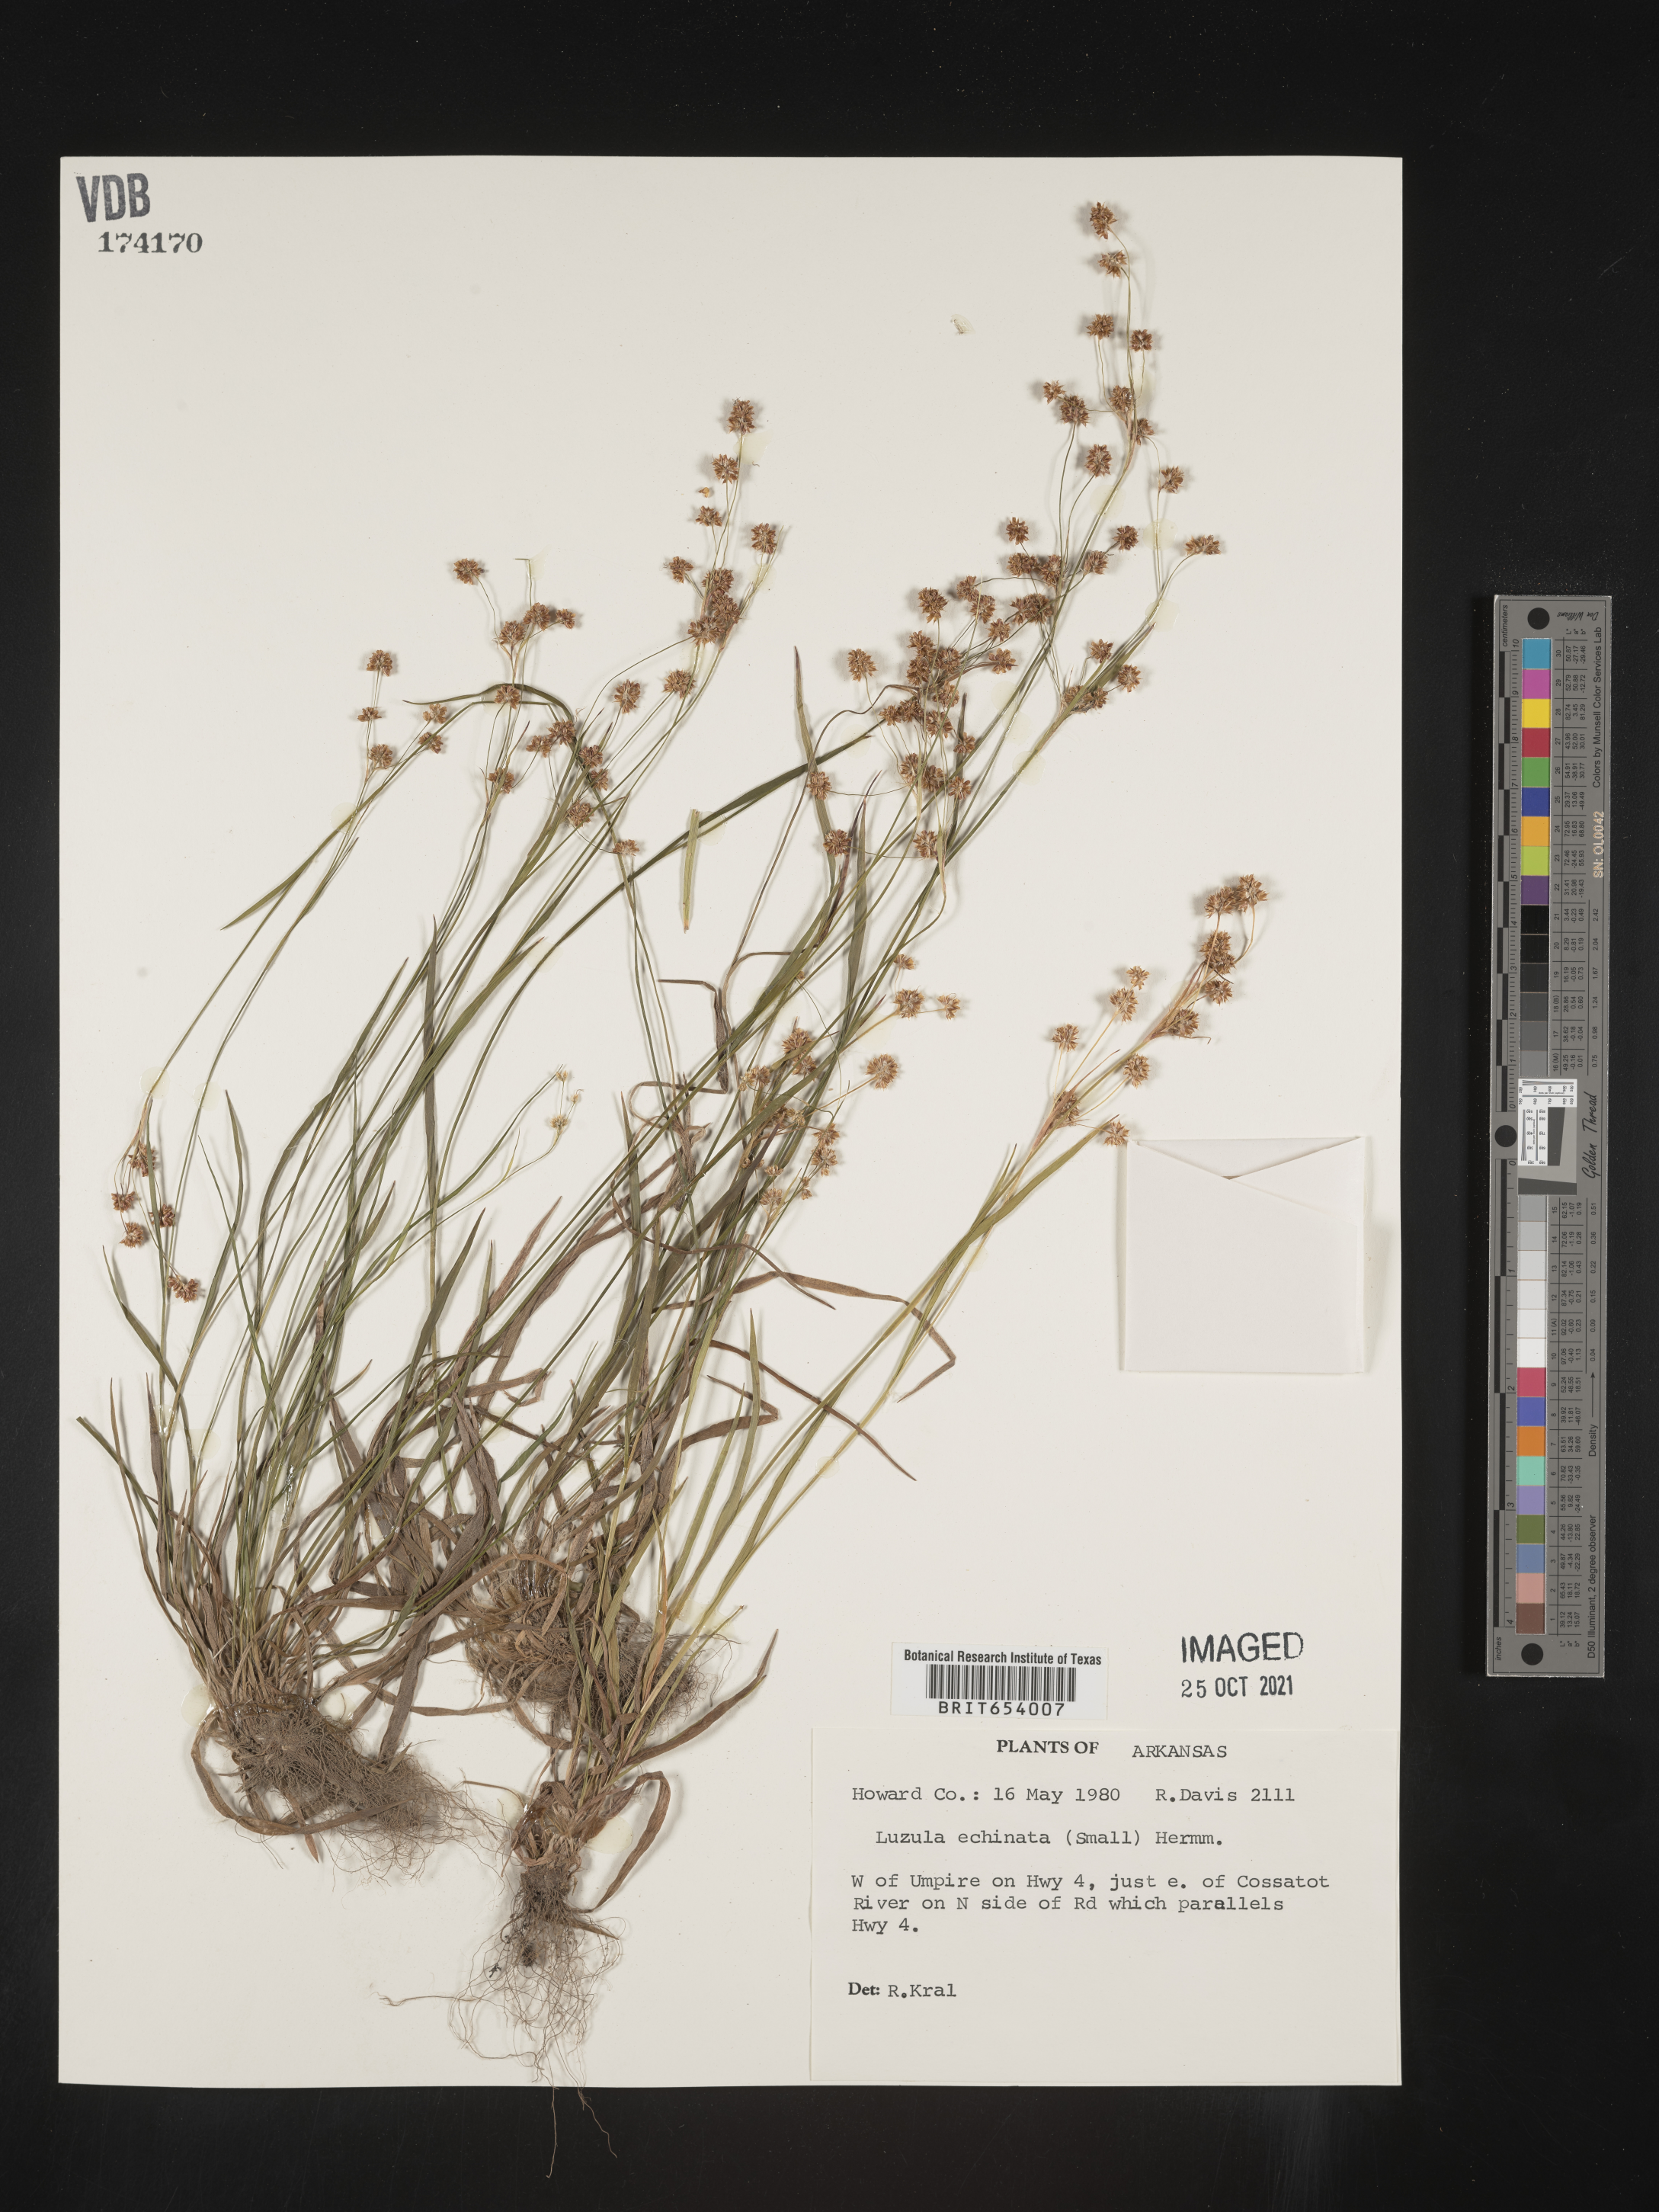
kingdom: Plantae
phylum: Tracheophyta
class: Liliopsida
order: Poales
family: Juncaceae
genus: Luzula
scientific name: Luzula echinata
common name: Hedgehog woodrush
